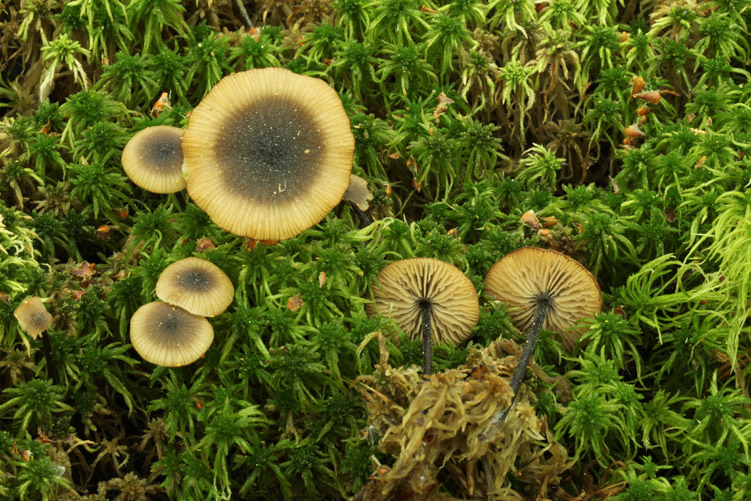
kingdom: Fungi
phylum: Basidiomycota
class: Agaricomycetes
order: Agaricales
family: Lyophyllaceae
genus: Sphagnurus
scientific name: Sphagnurus paluster
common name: tørvemos-gråblad
